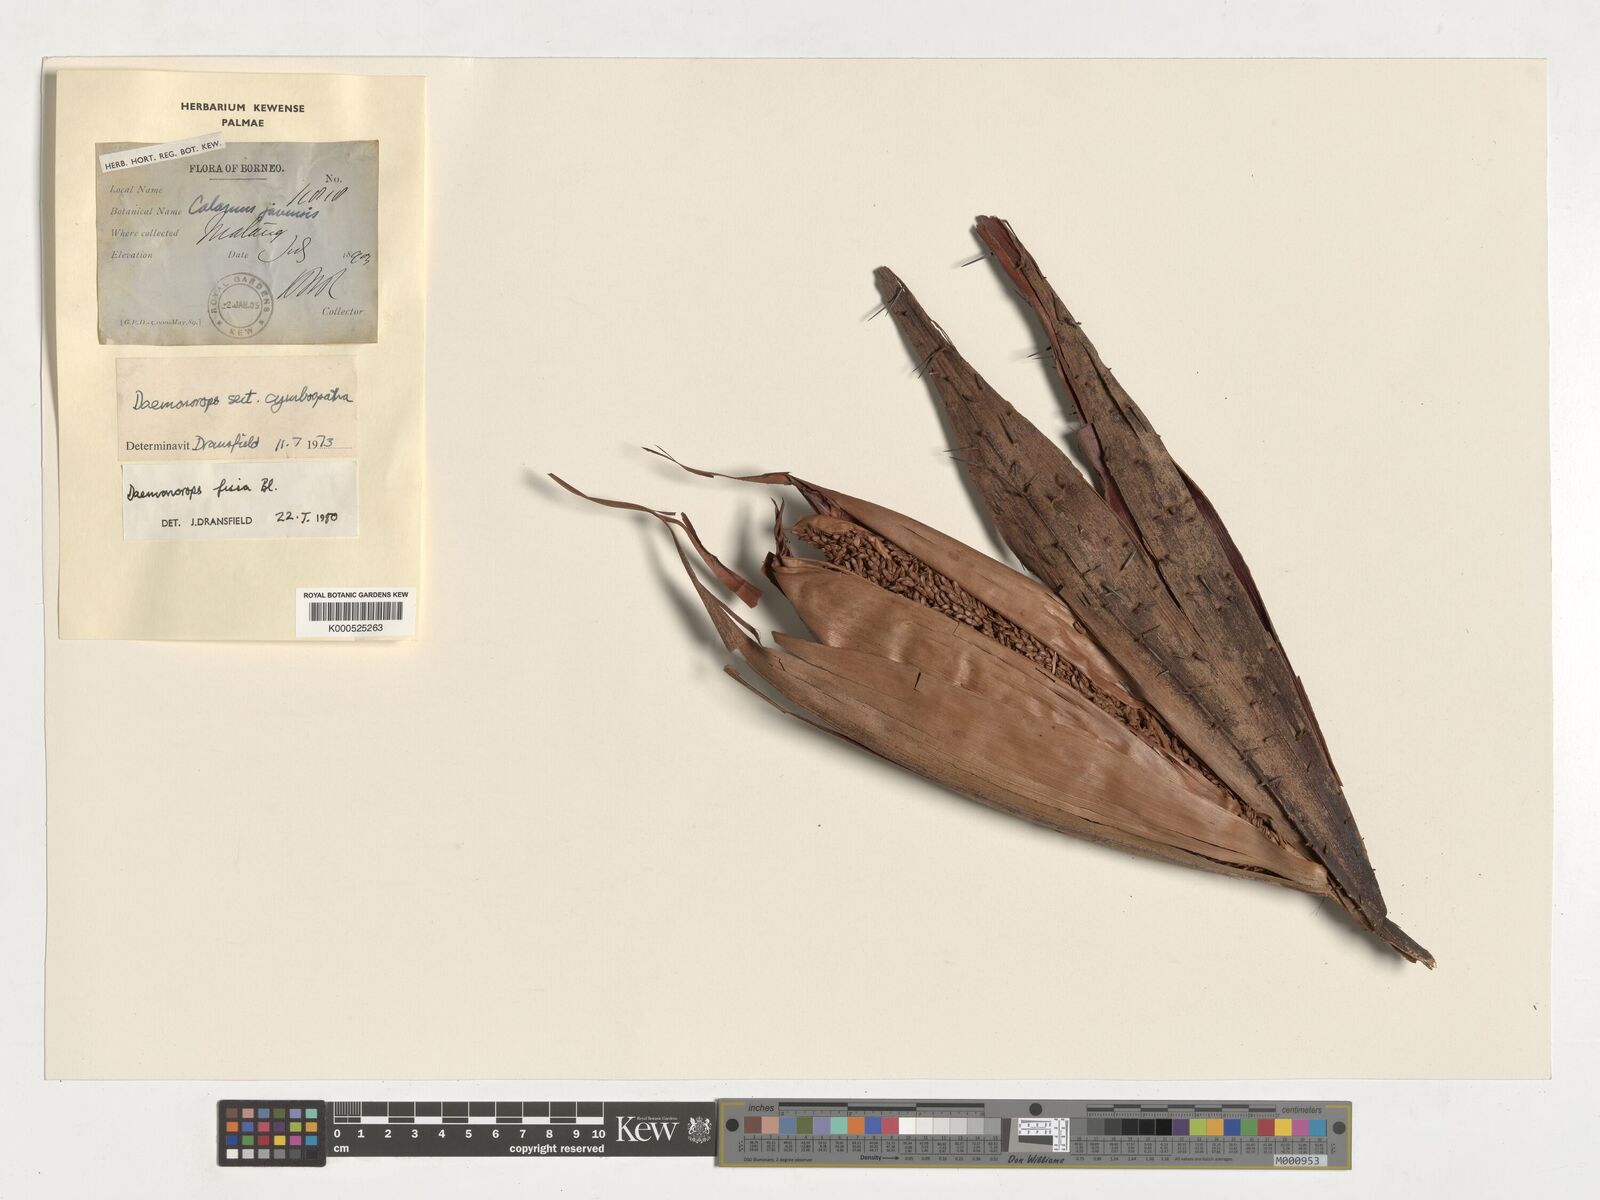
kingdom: Plantae
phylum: Tracheophyta
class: Liliopsida
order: Arecales
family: Arecaceae
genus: Calamus
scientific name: Calamus melanochaetes
